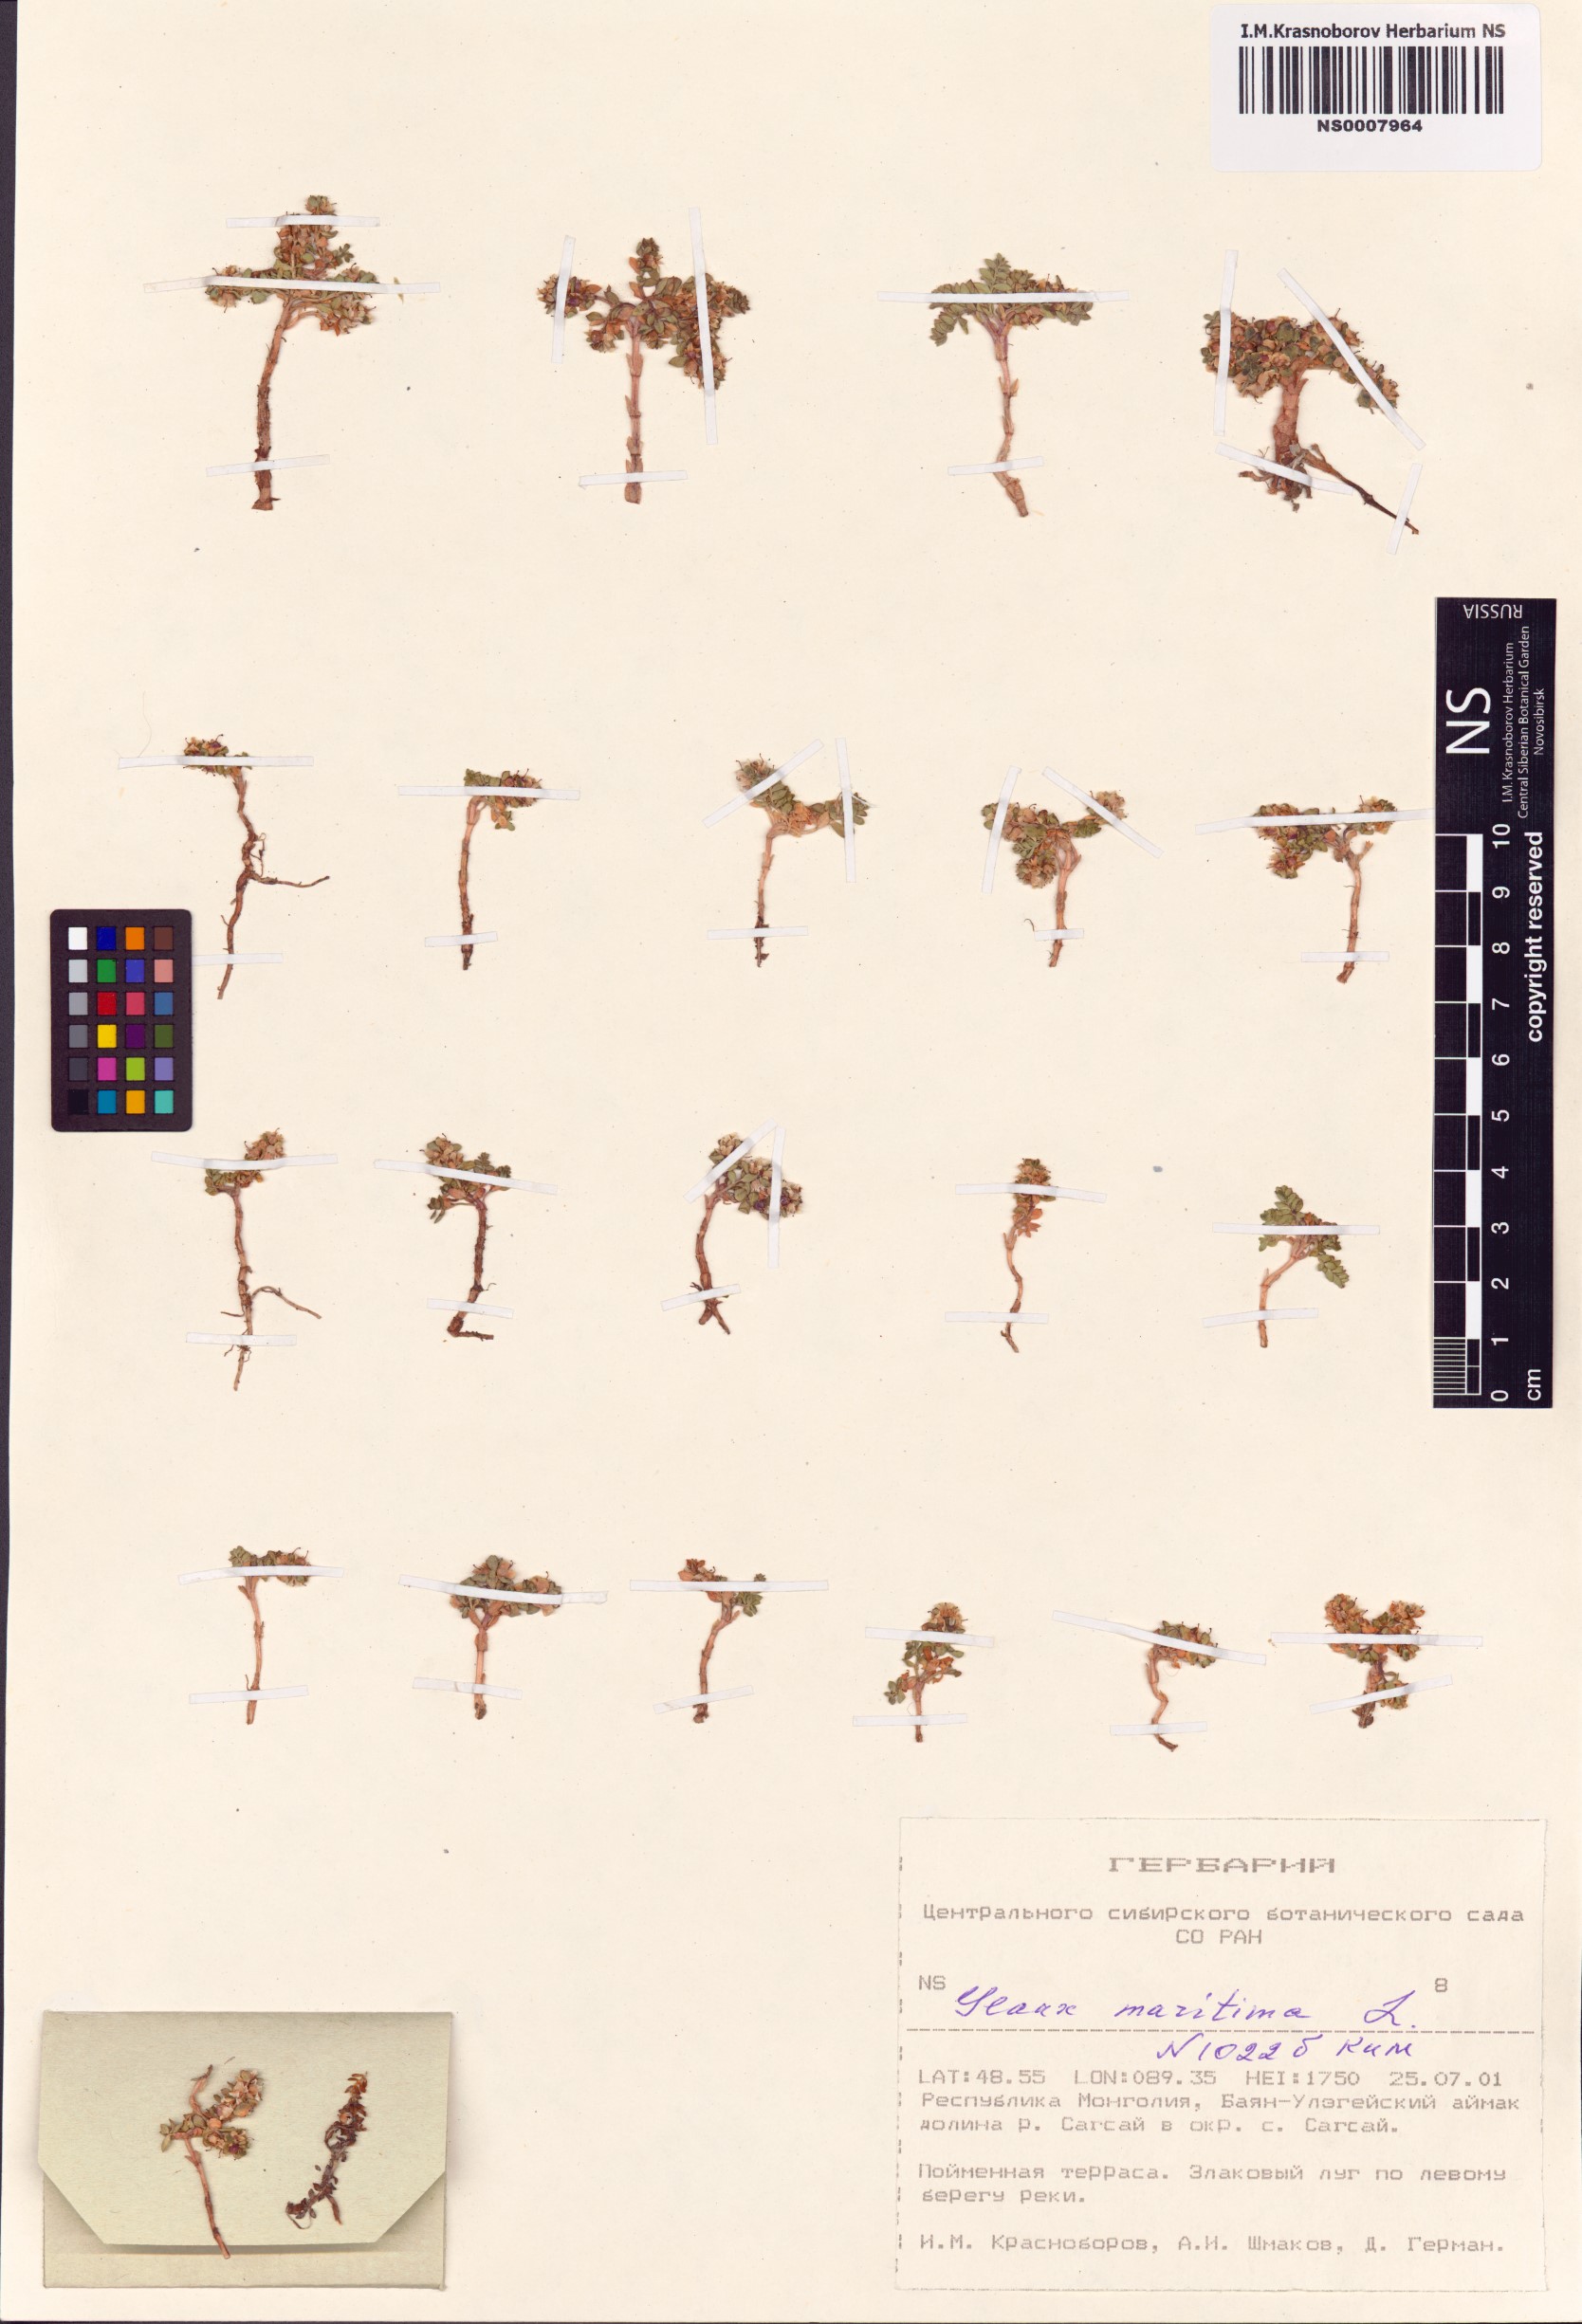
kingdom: Plantae
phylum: Tracheophyta
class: Magnoliopsida
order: Ericales
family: Primulaceae
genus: Lysimachia
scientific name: Lysimachia maritima
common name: Sea milkwort
